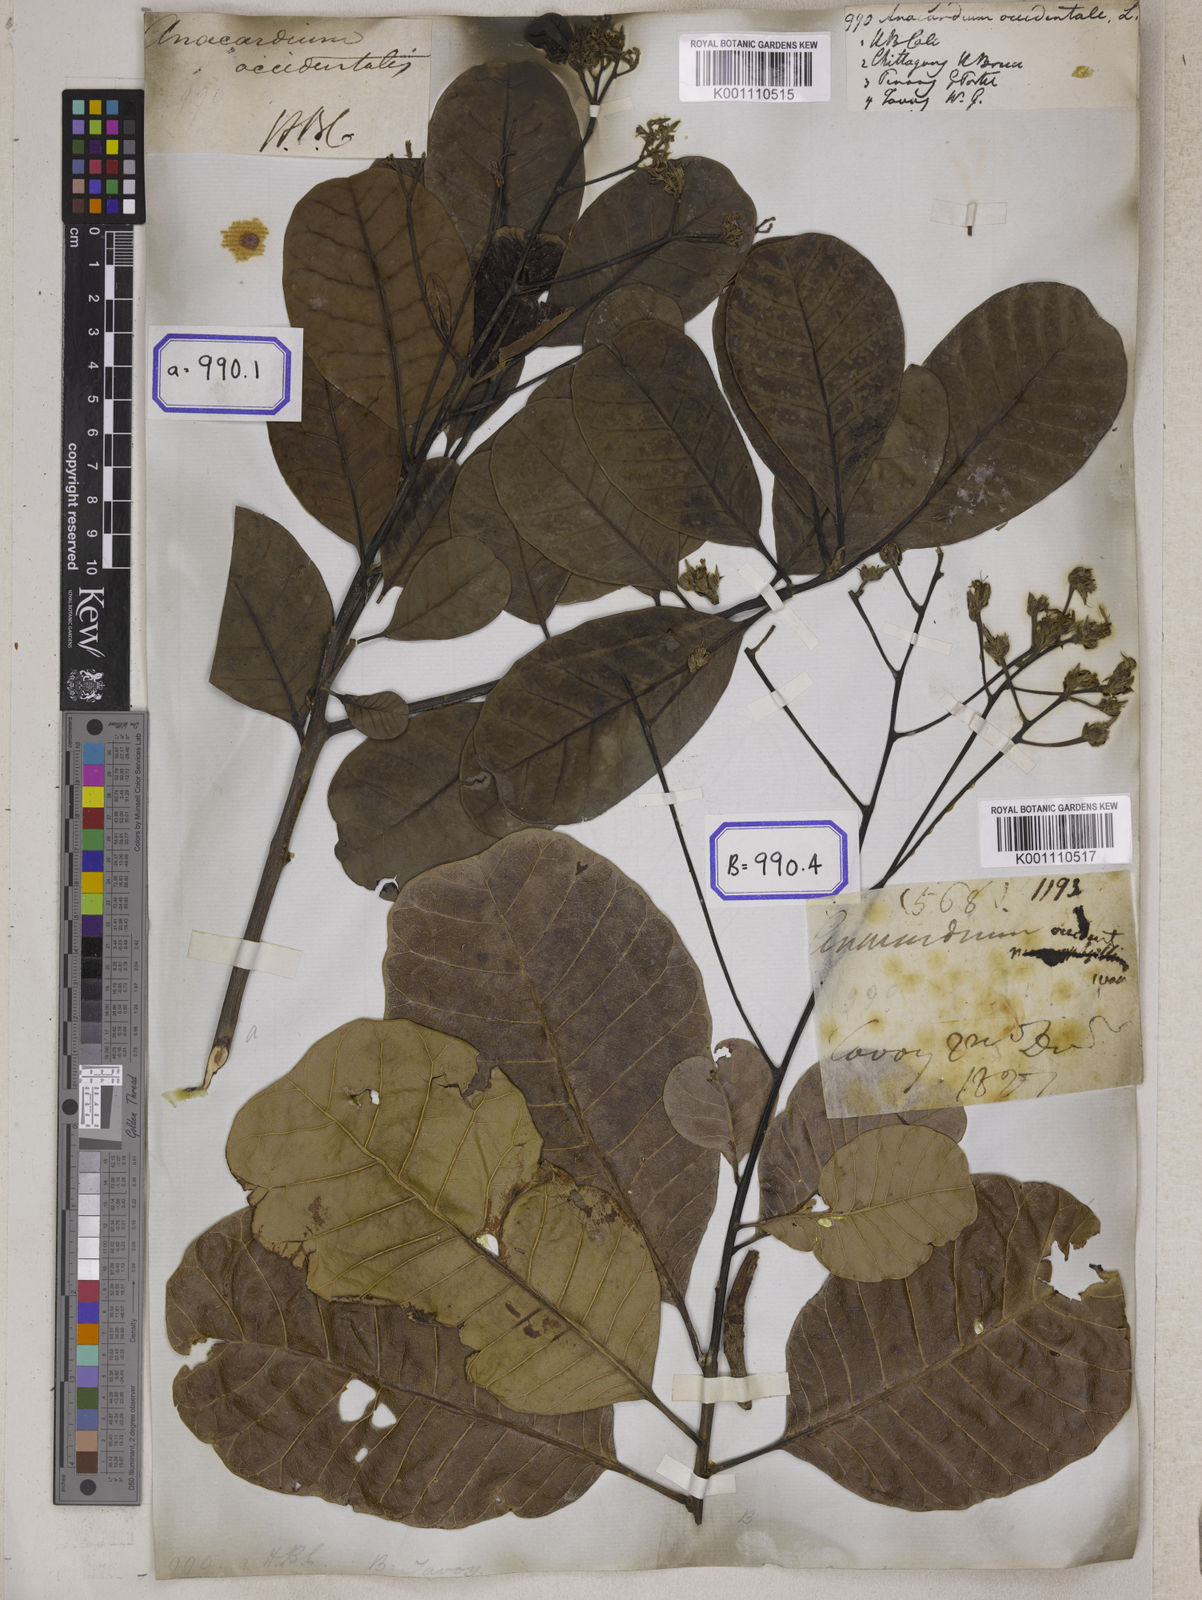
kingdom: Plantae
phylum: Tracheophyta
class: Magnoliopsida
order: Sapindales
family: Anacardiaceae
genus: Anacardium
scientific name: Anacardium occidentale
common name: Cashew
